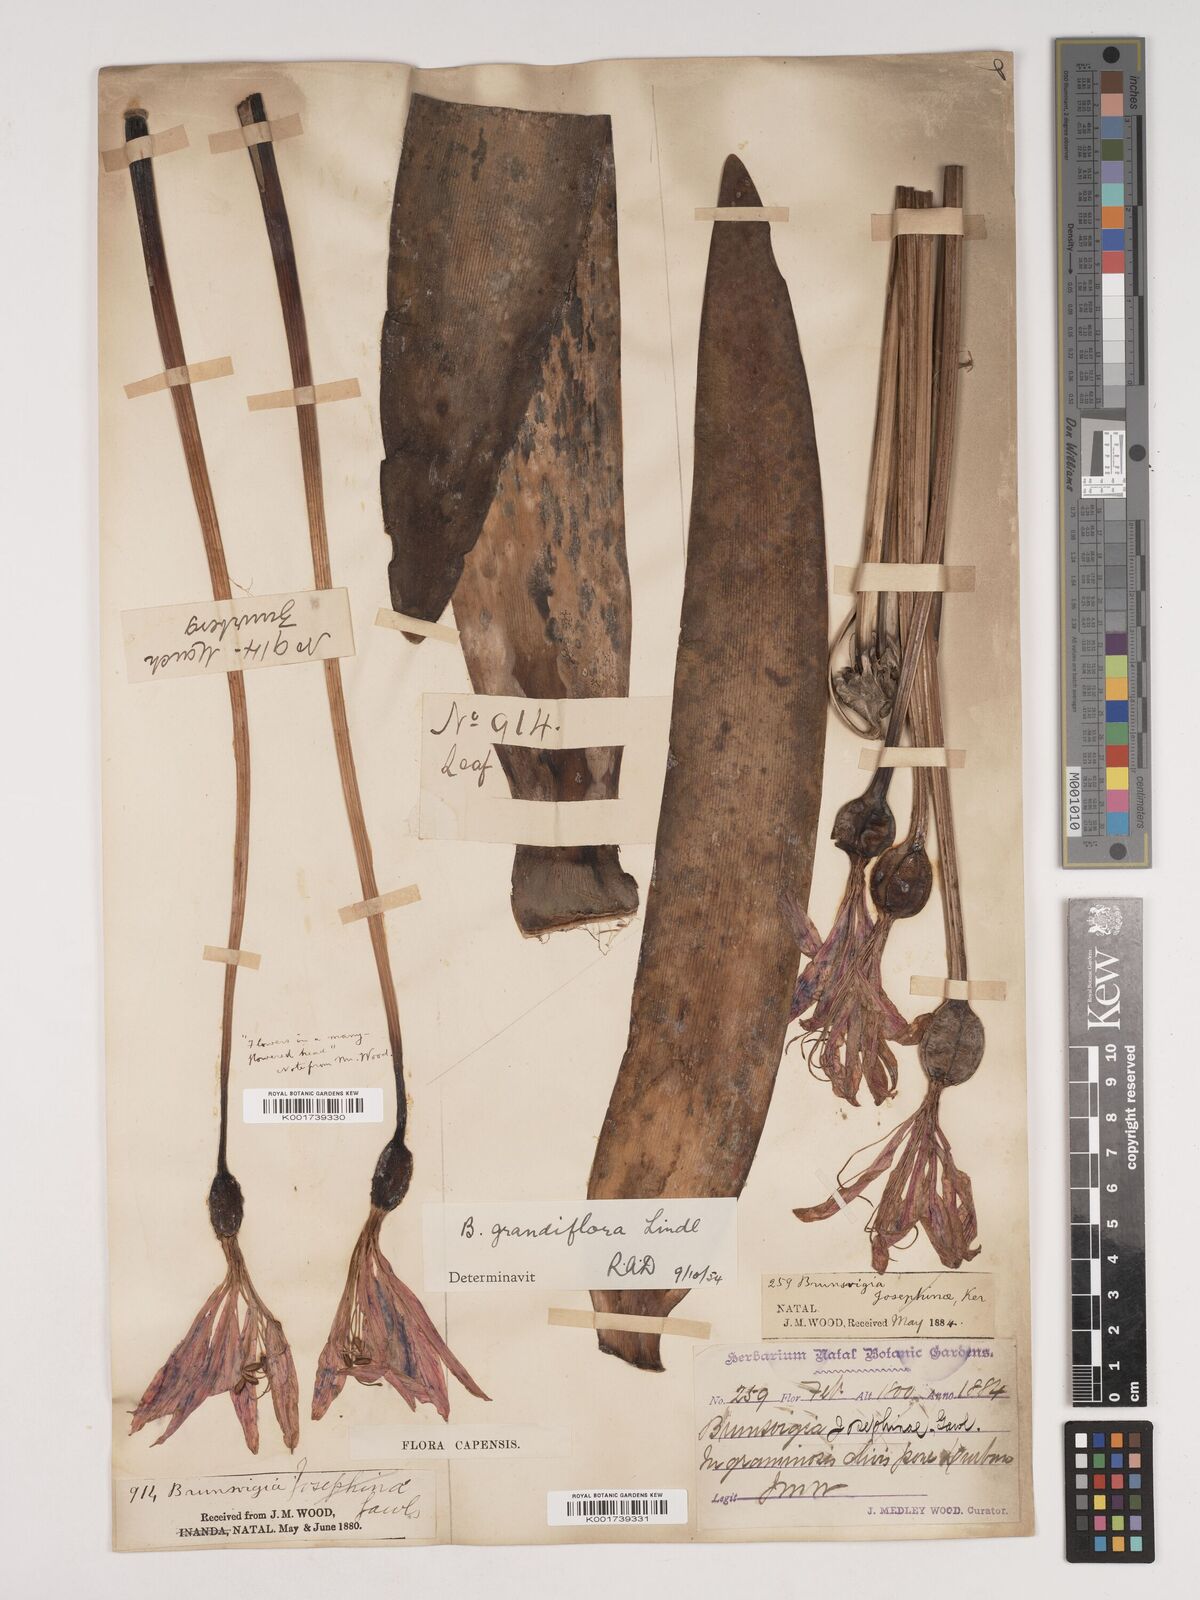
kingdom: Plantae
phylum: Tracheophyta
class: Liliopsida
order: Asparagales
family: Amaryllidaceae
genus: Brunsvigia
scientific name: Brunsvigia grandiflora
